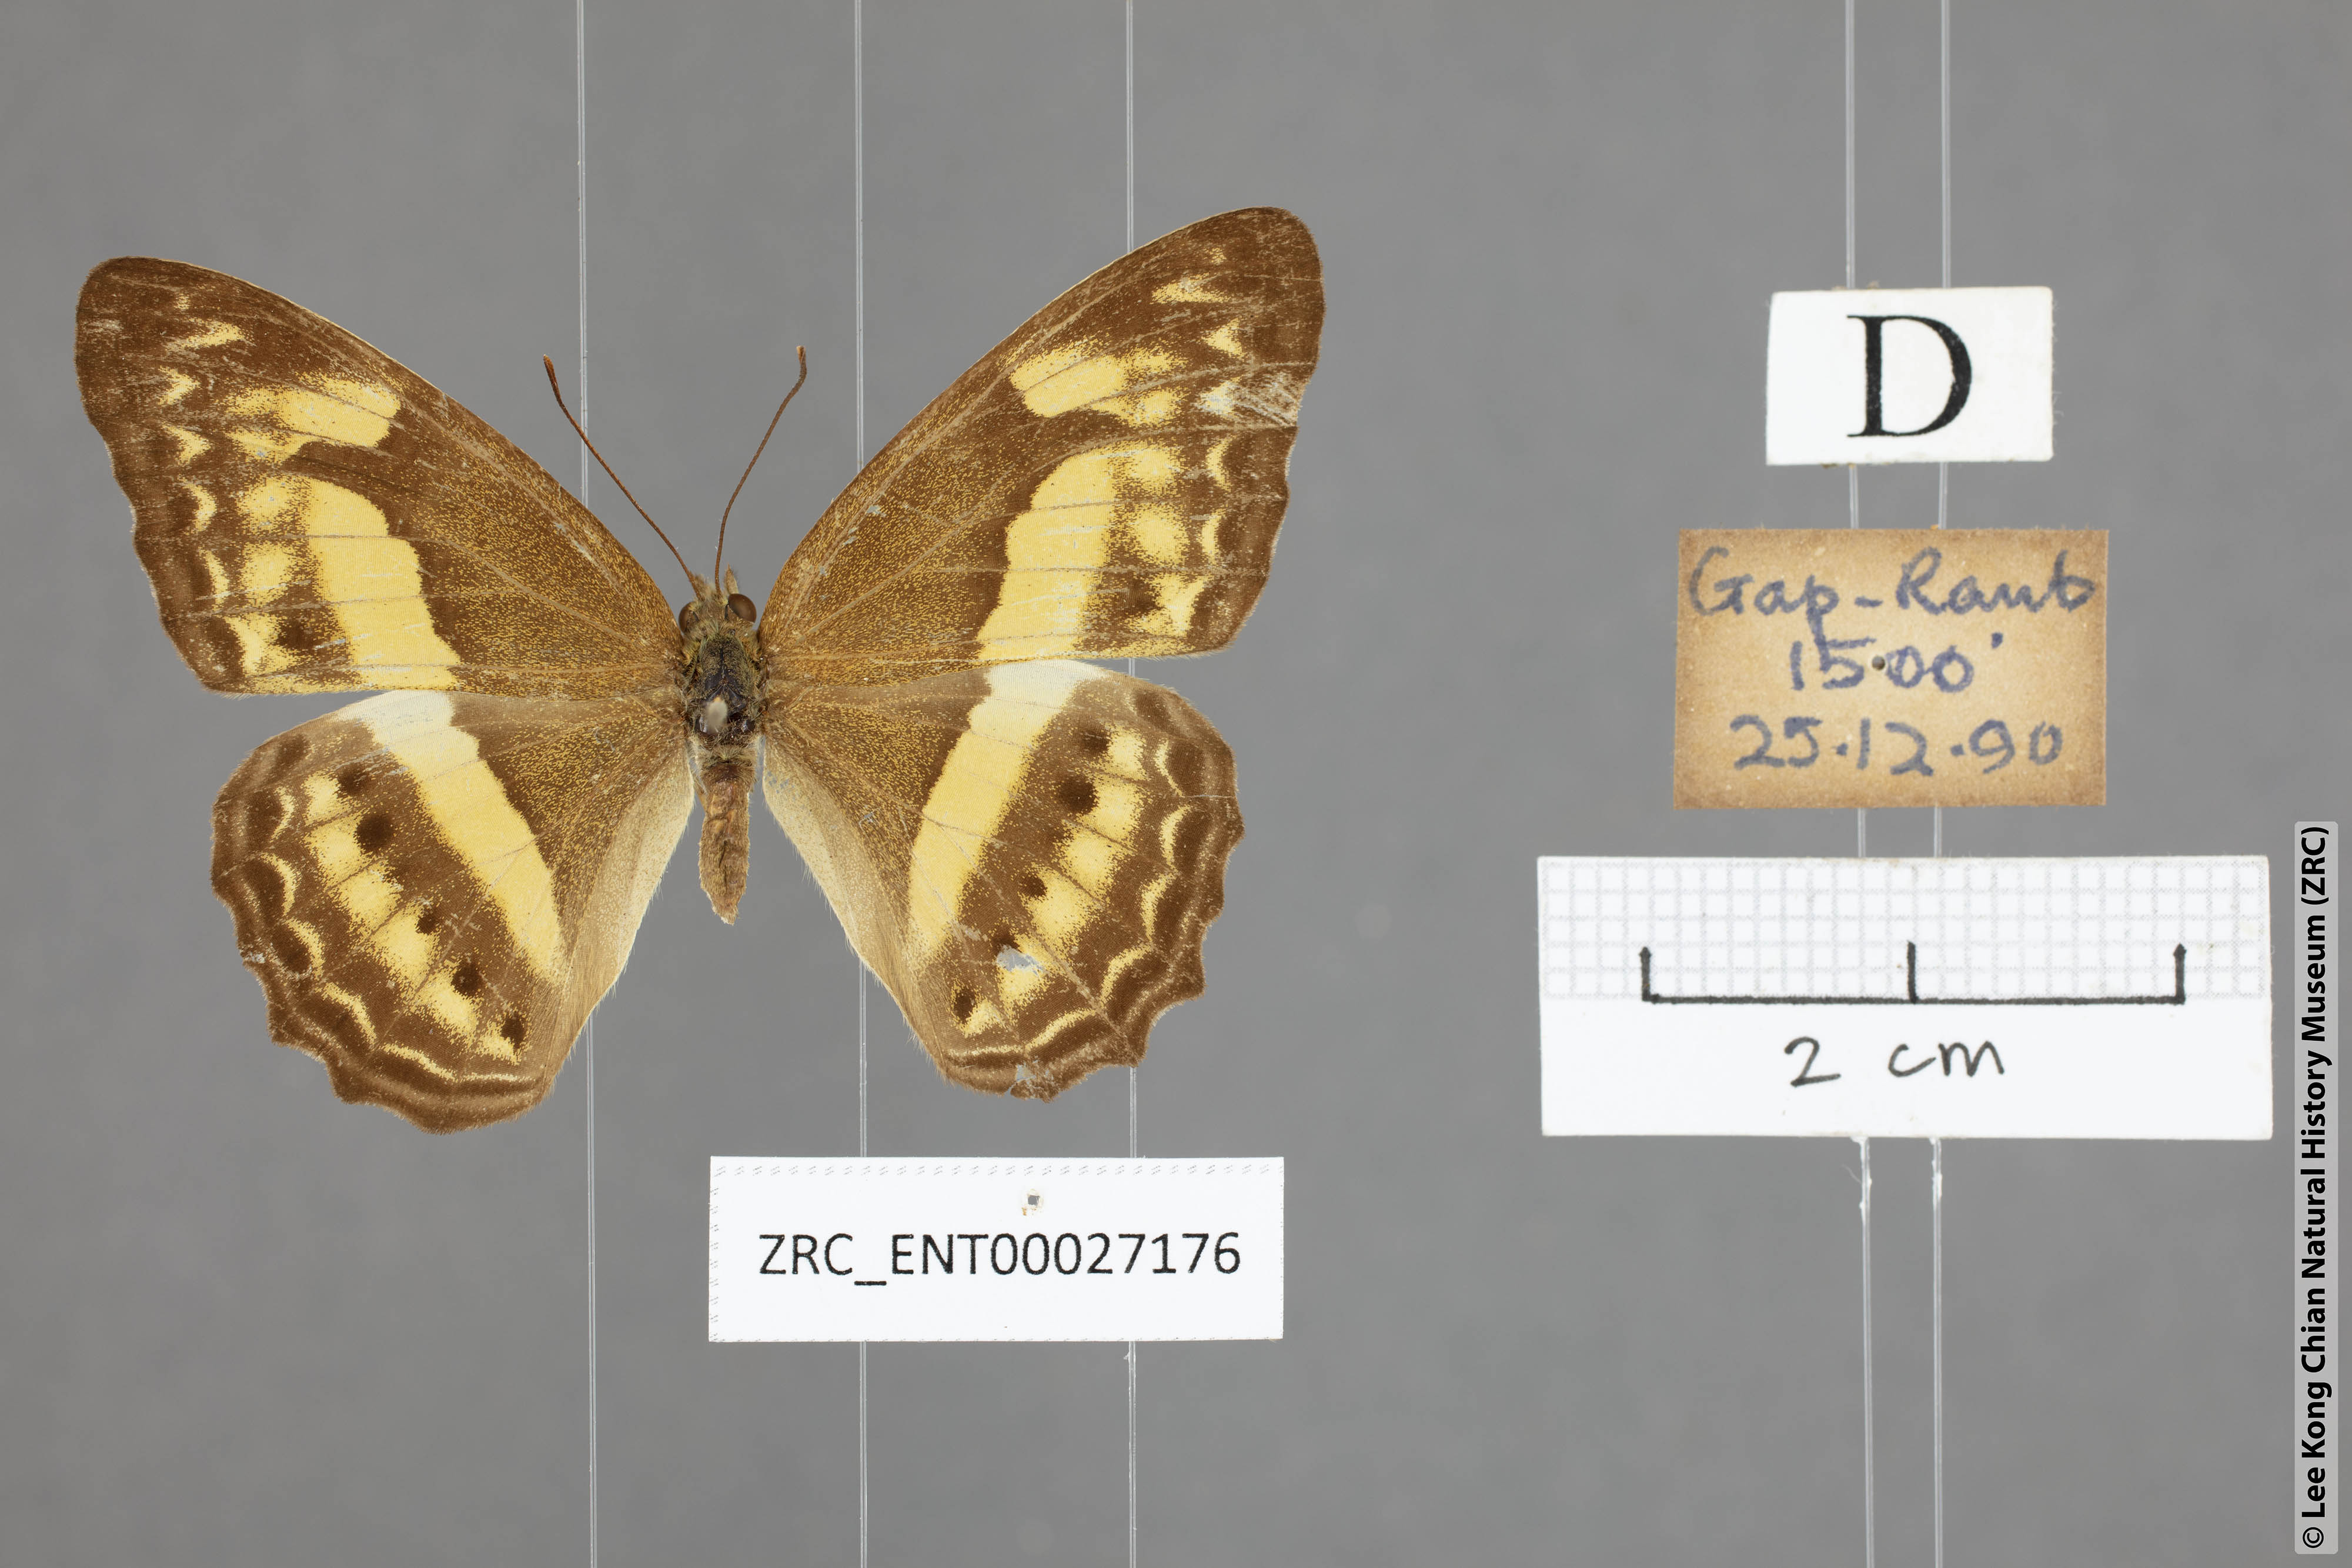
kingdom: Animalia
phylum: Arthropoda
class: Insecta
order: Lepidoptera
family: Nymphalidae
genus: Cirrochroa
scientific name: Cirrochroa fasciata
